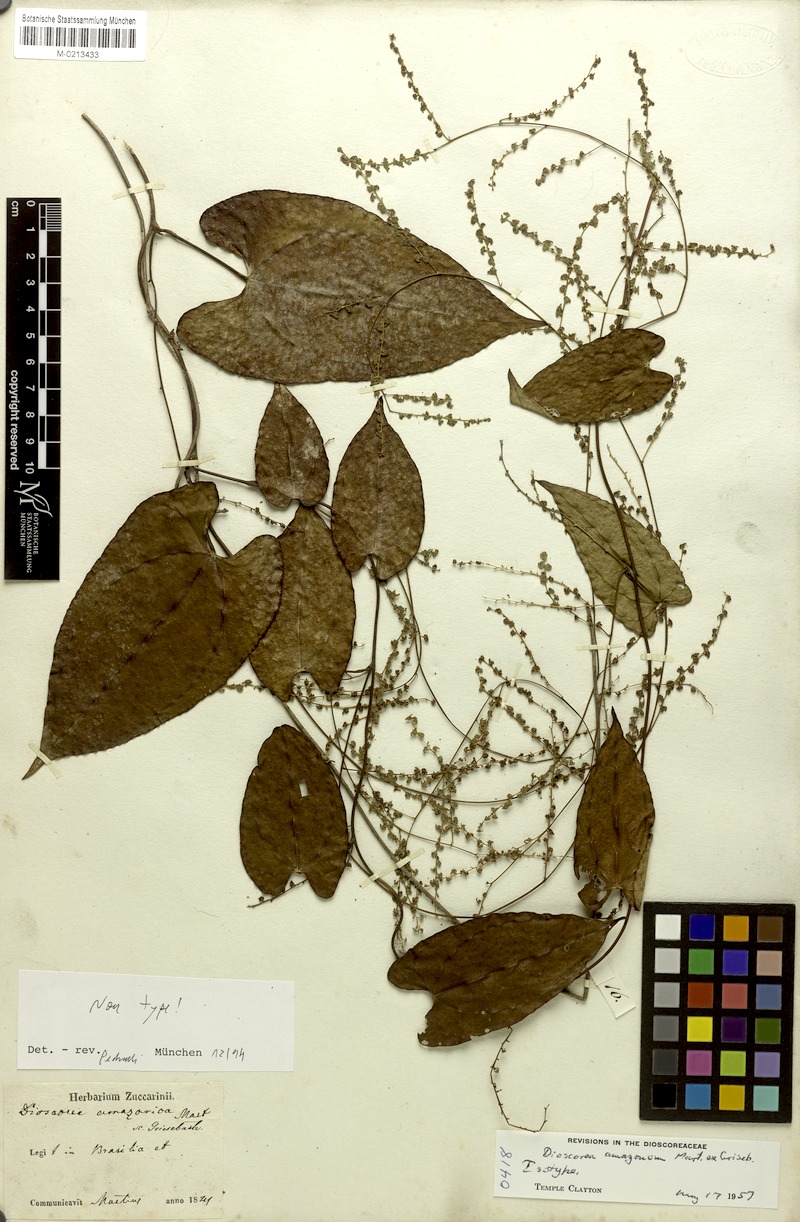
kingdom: Plantae
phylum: Tracheophyta
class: Liliopsida
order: Dioscoreales
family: Dioscoreaceae
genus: Dioscorea
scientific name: Dioscorea amazonum
